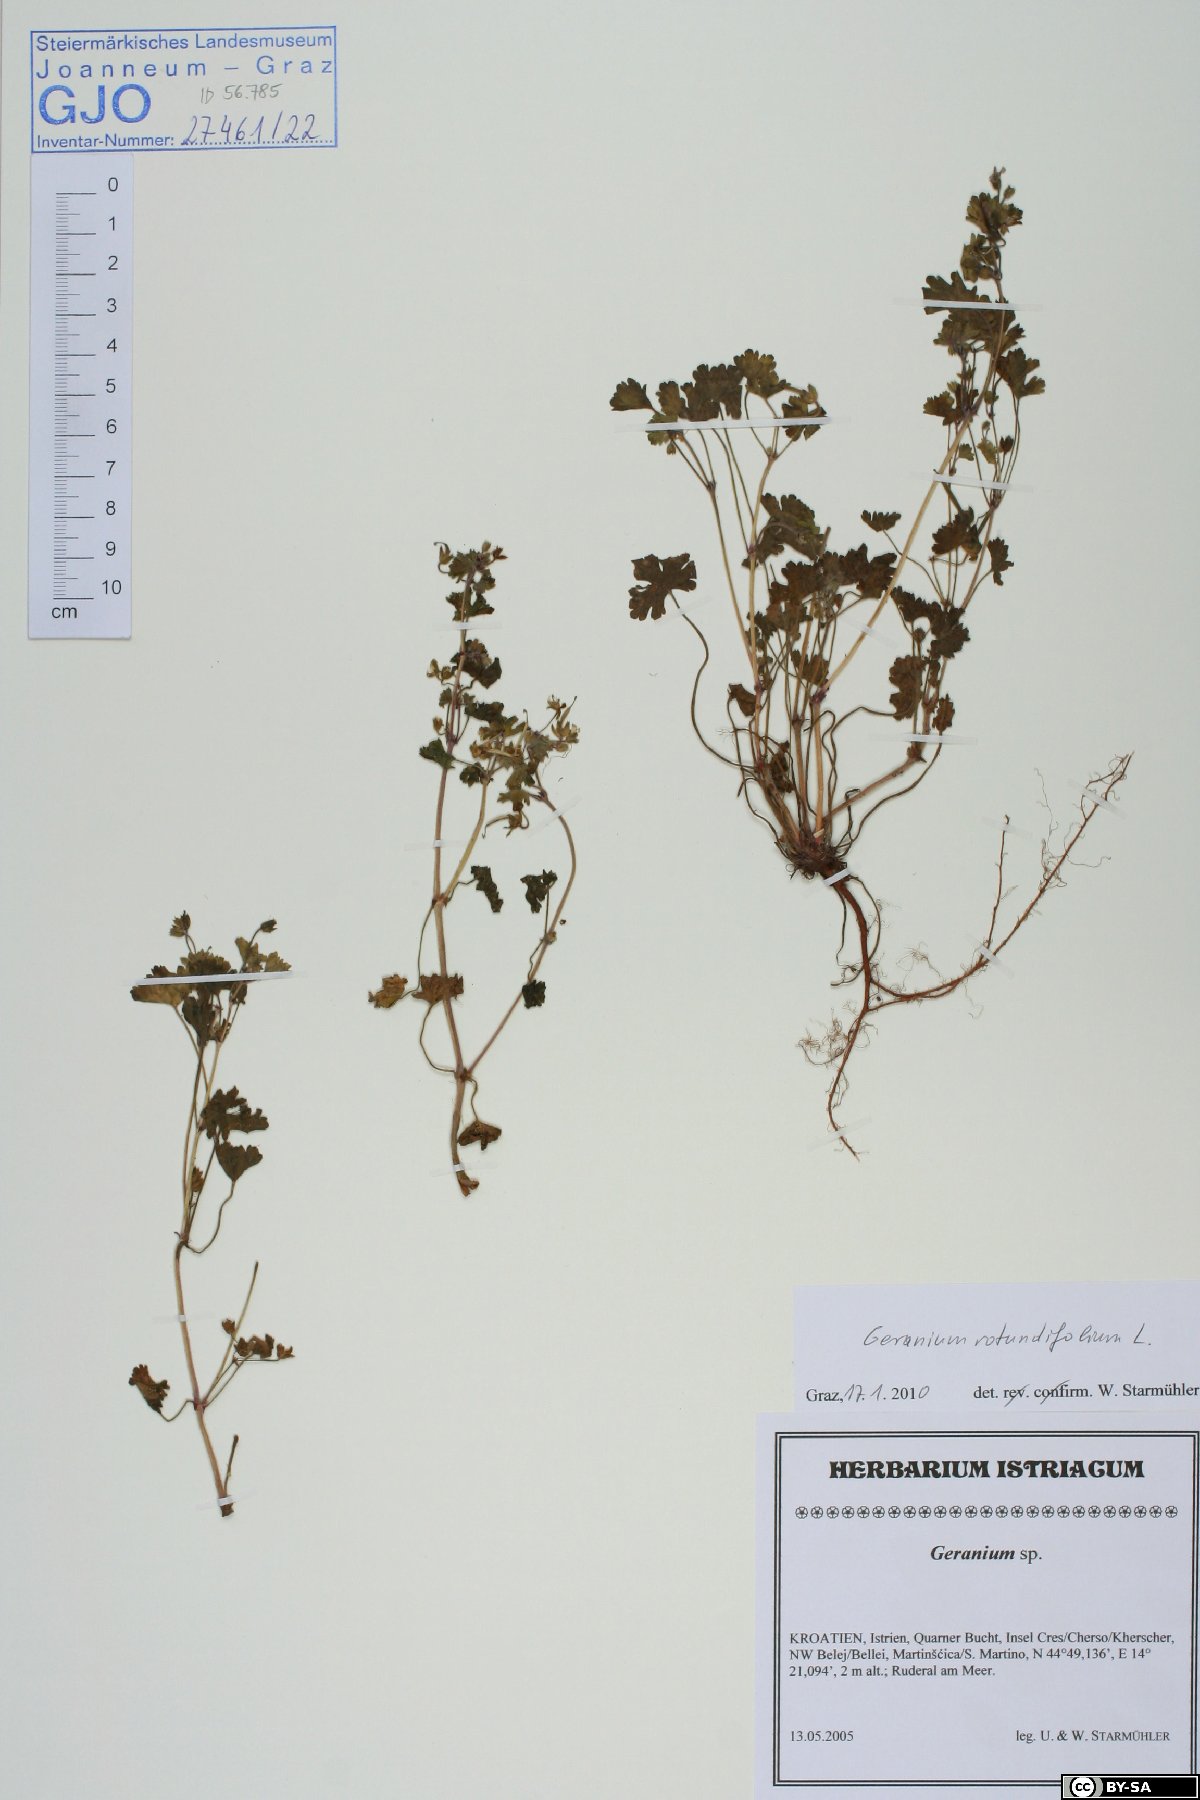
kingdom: Plantae
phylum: Tracheophyta
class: Magnoliopsida
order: Geraniales
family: Geraniaceae
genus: Geranium
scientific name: Geranium rotundifolium
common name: Round-leaved crane's-bill
